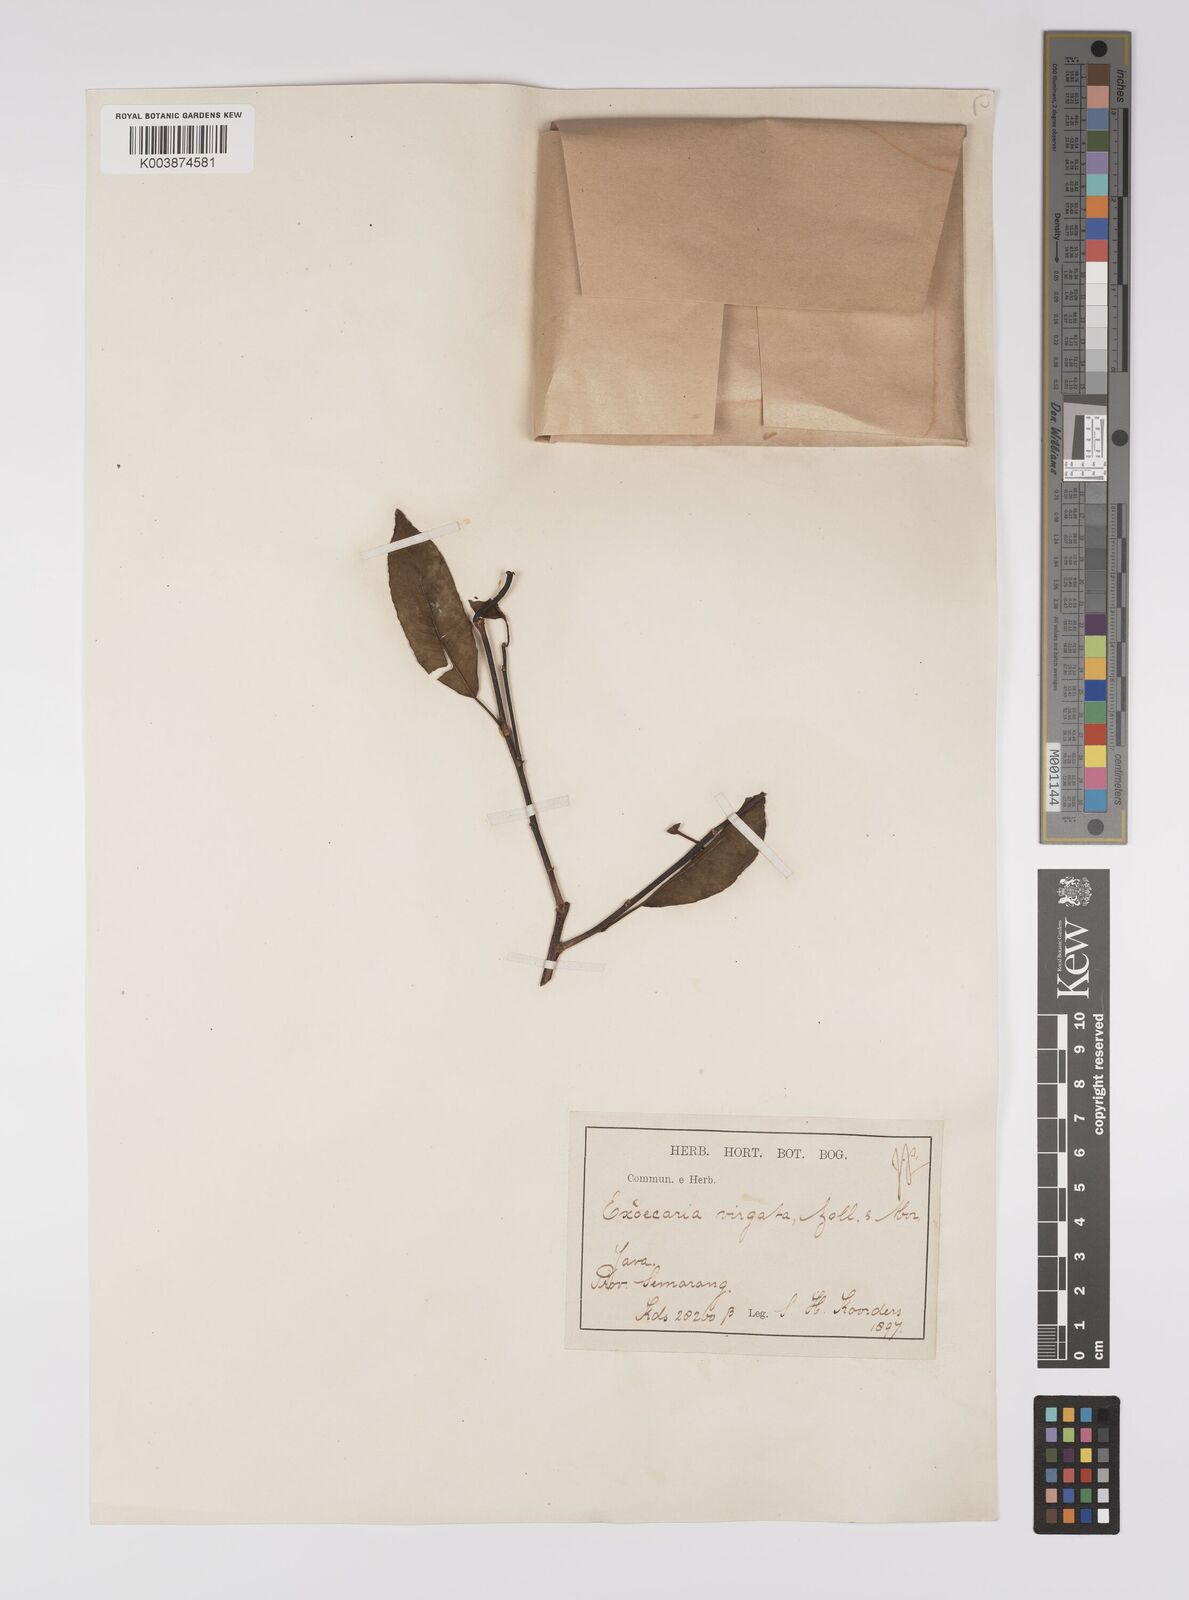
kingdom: Plantae
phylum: Tracheophyta
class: Magnoliopsida
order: Malpighiales
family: Euphorbiaceae
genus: Shirakiopsis
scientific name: Shirakiopsis virgata
